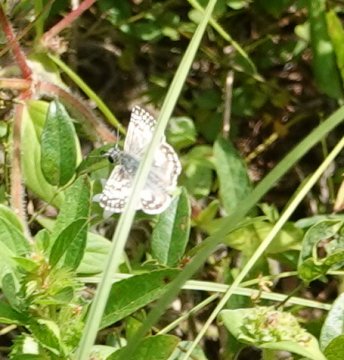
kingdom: Animalia
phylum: Arthropoda
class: Insecta
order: Lepidoptera
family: Hesperiidae
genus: Burnsius
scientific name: Burnsius albescens
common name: White Checkered-Skipper
